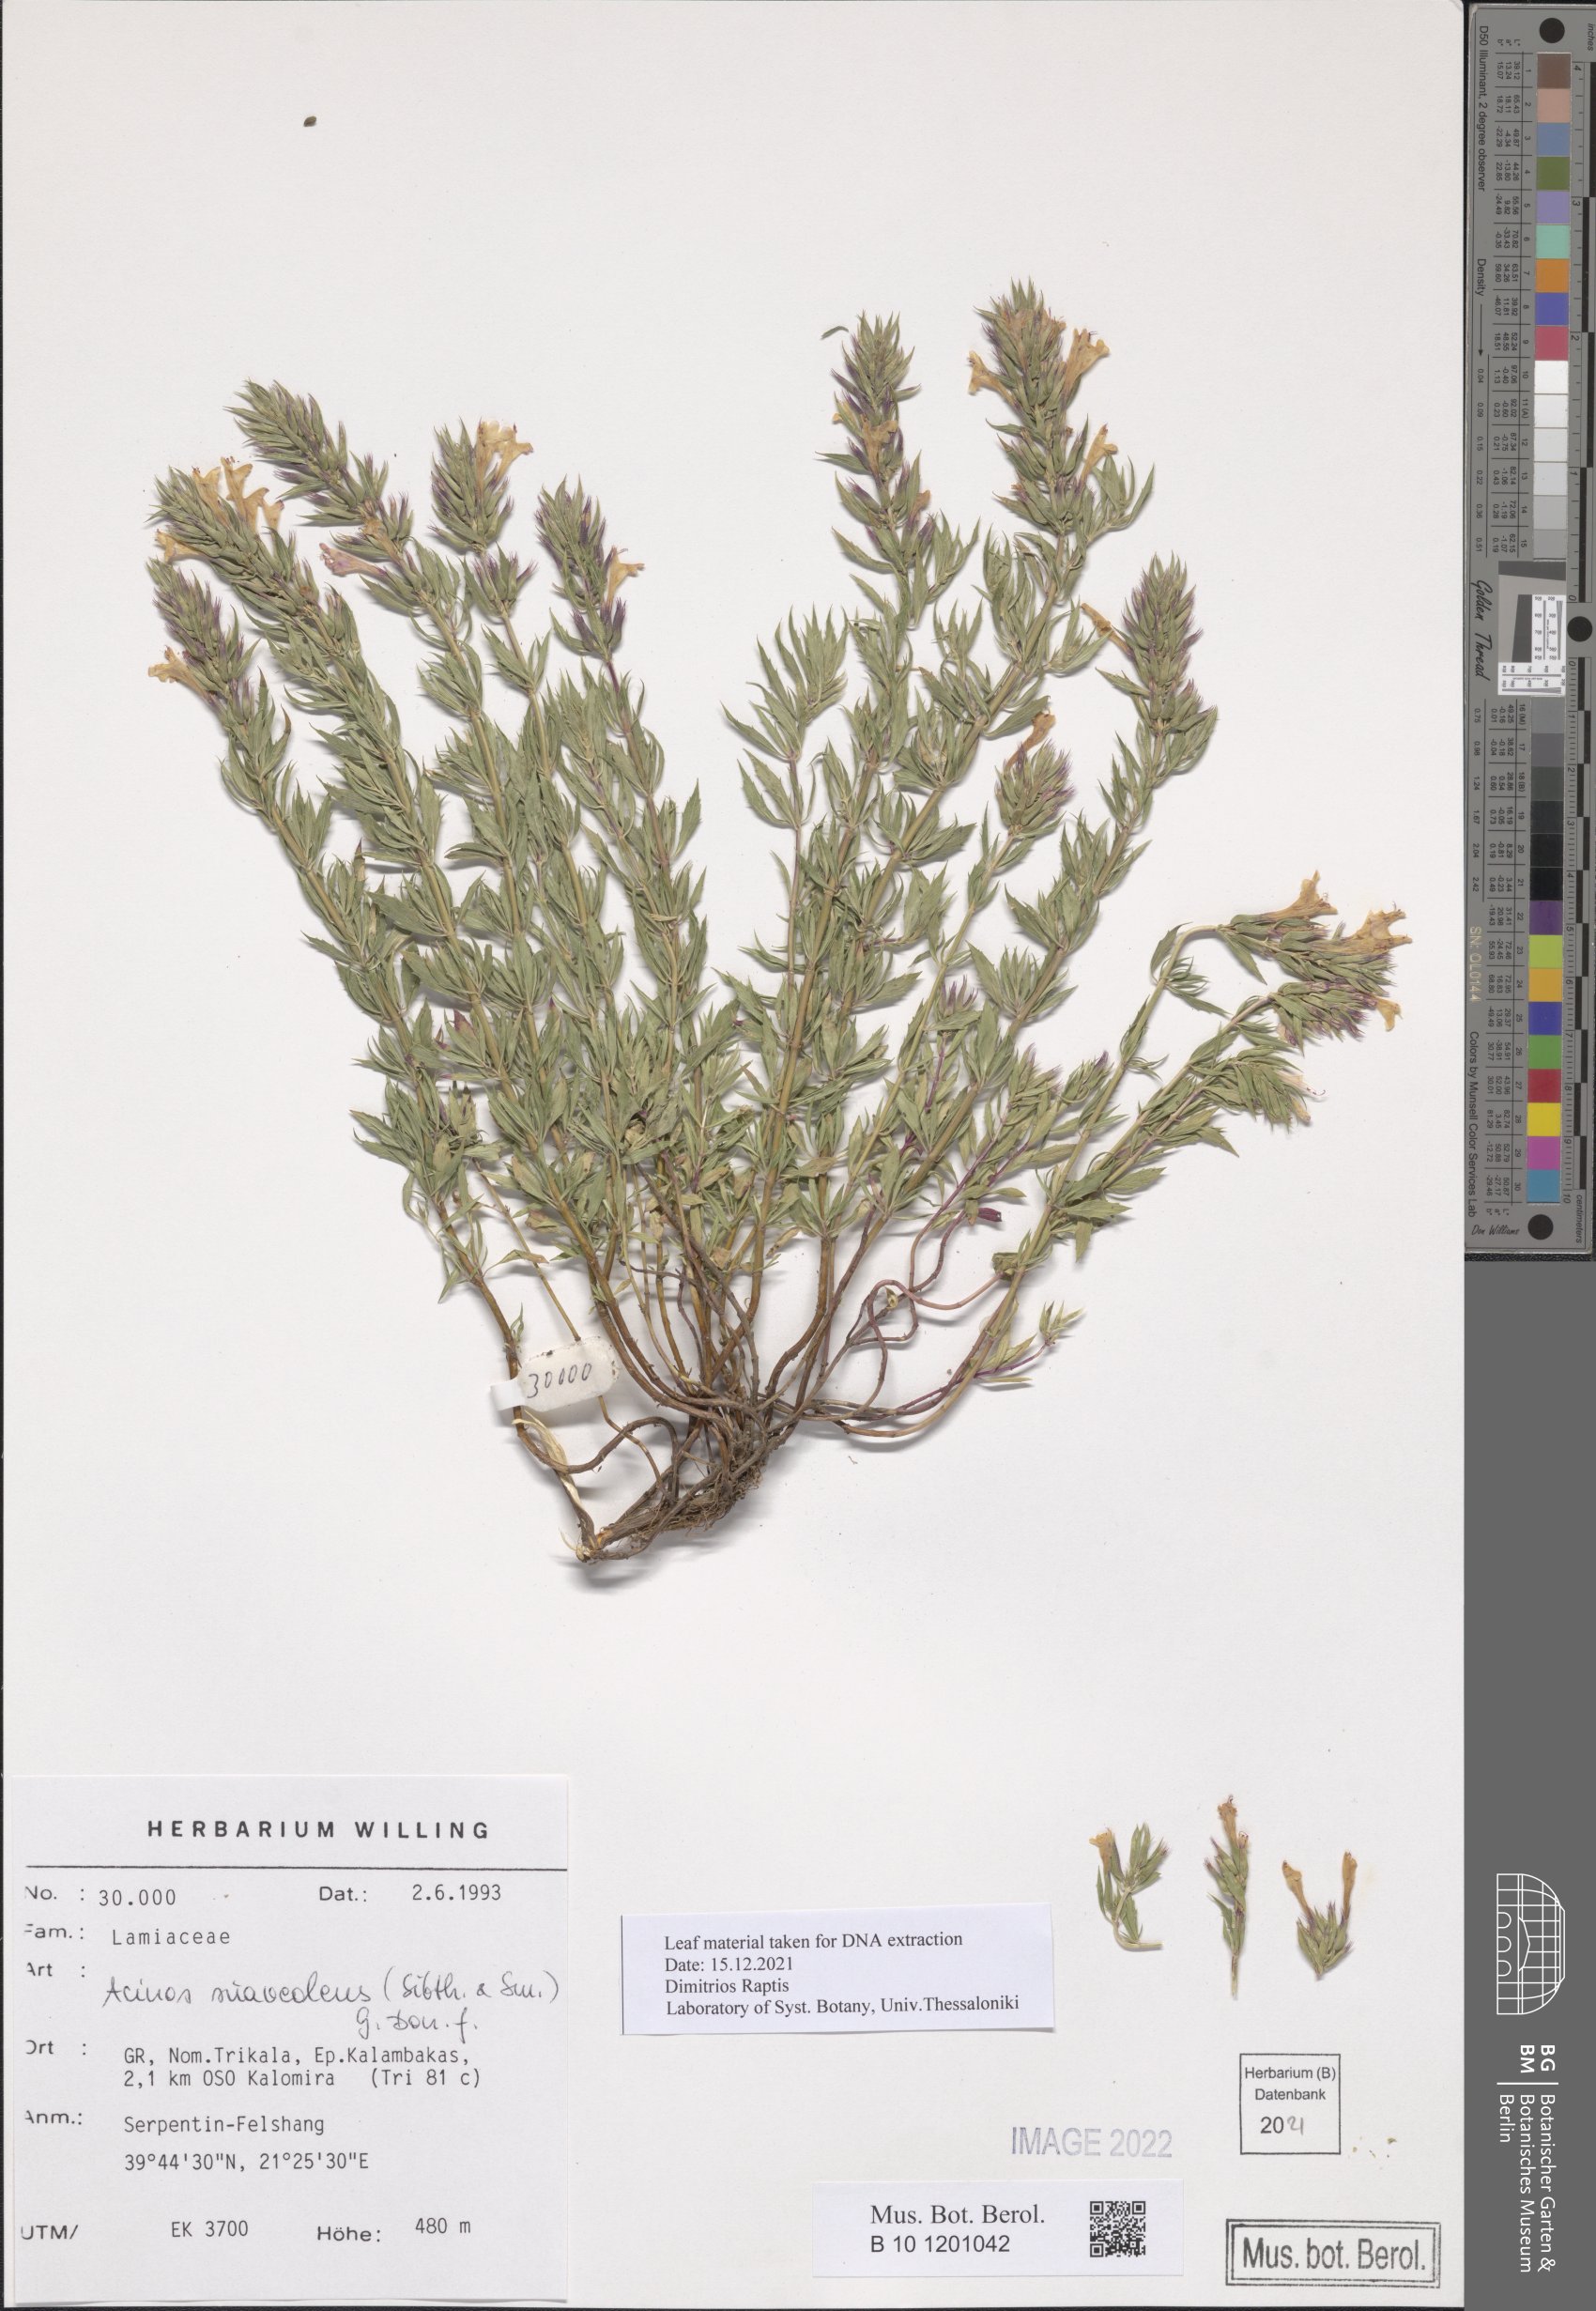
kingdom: Plantae
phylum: Tracheophyta
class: Magnoliopsida
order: Lamiales
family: Lamiaceae
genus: Clinopodium
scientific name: Clinopodium suaveolens
